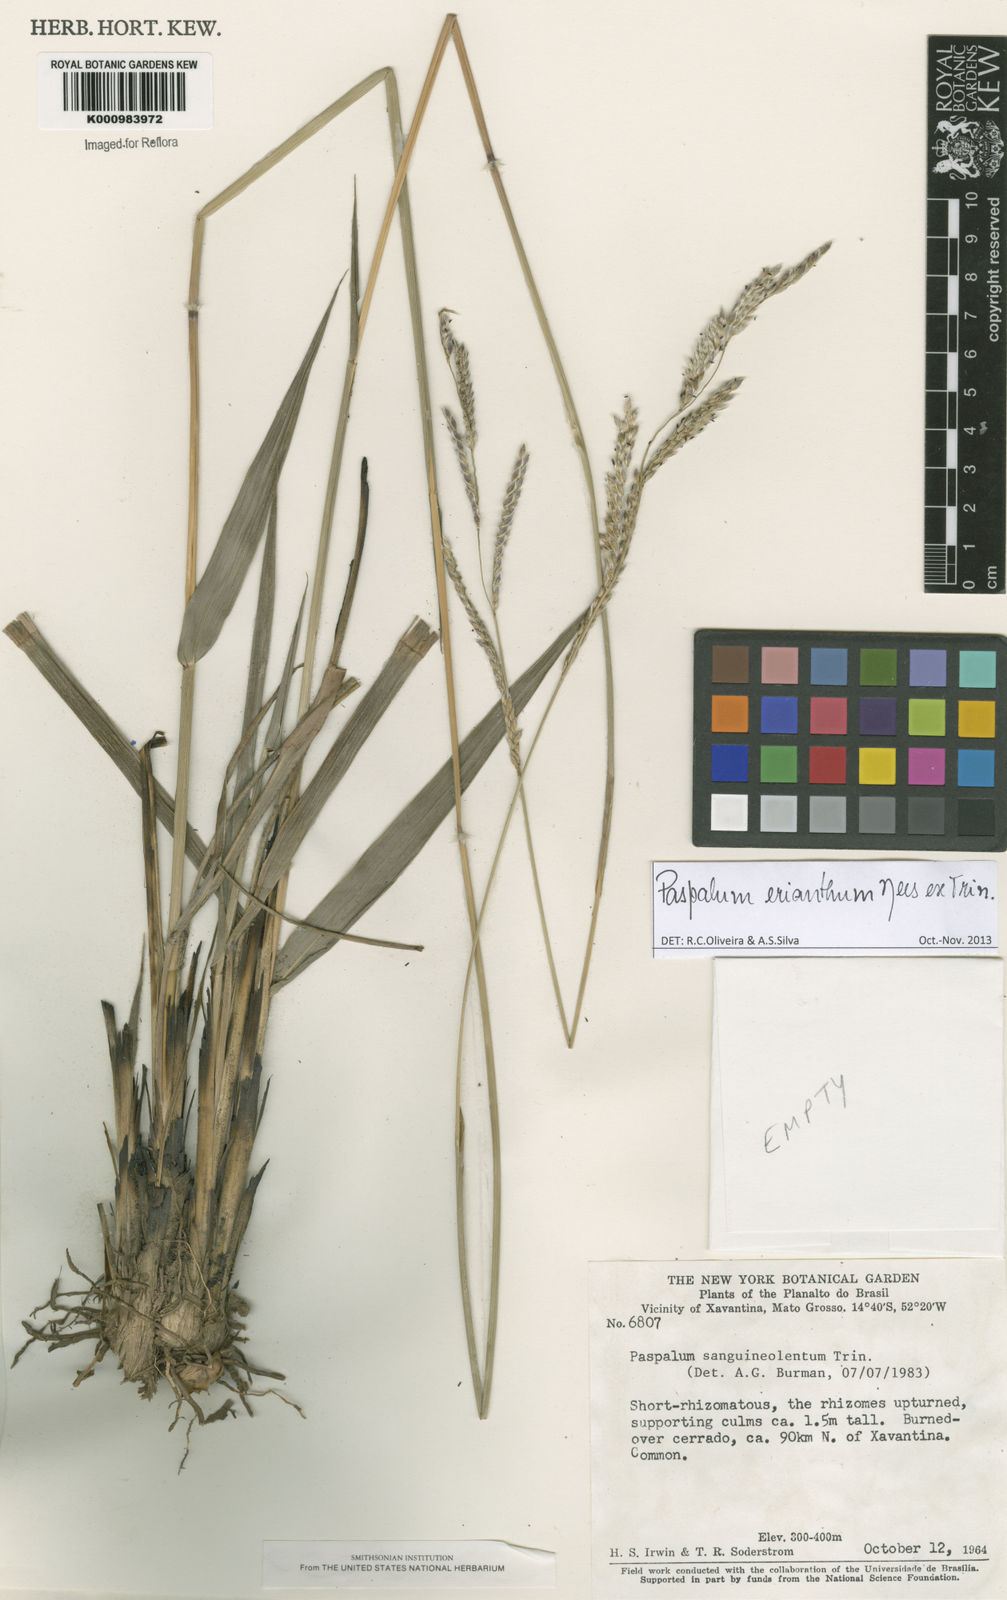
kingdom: Plantae
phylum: Tracheophyta
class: Liliopsida
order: Poales
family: Poaceae
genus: Paspalum
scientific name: Paspalum erianthum
